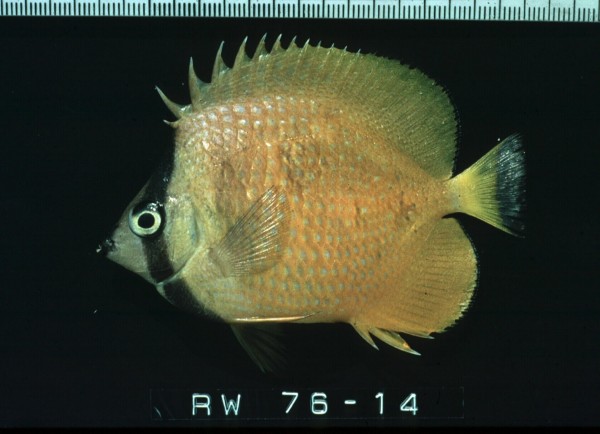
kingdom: Animalia
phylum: Chordata
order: Perciformes
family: Chaetodontidae
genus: Chaetodon
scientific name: Chaetodon kleinii
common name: Klein's butterflyfish
